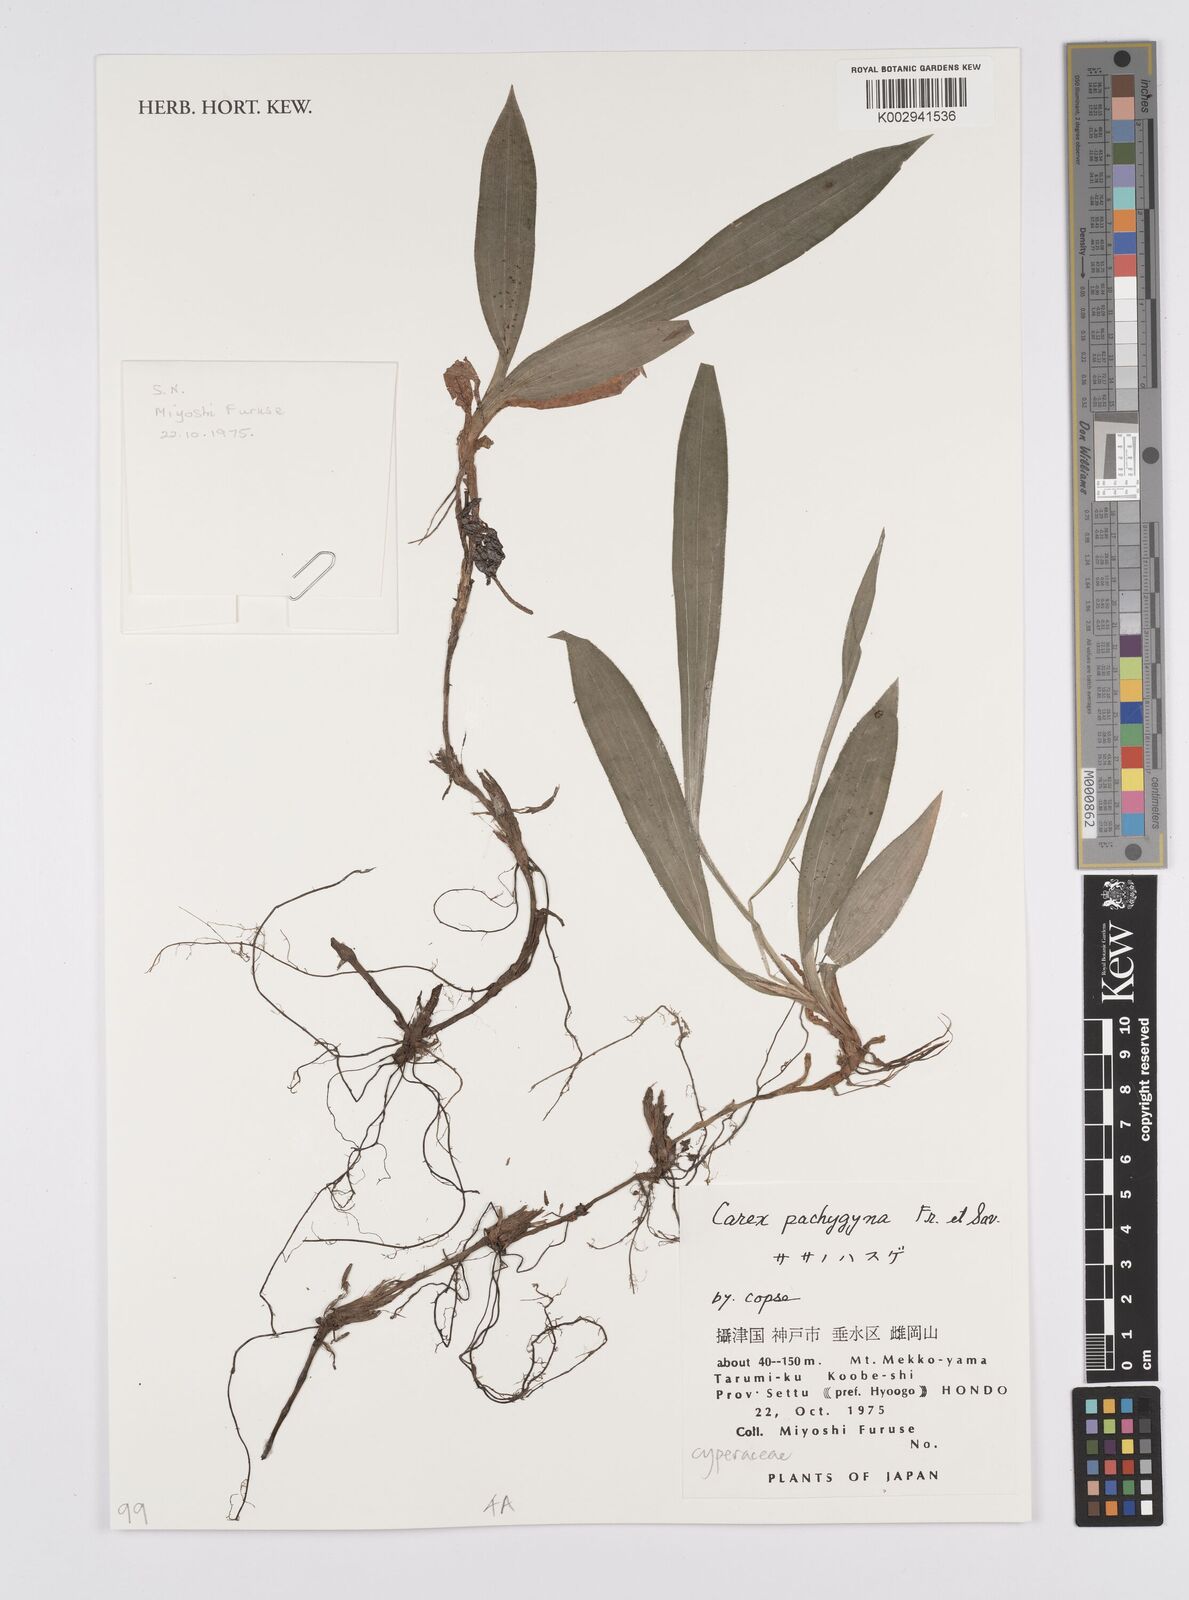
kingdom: Plantae
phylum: Tracheophyta
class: Liliopsida
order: Poales
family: Cyperaceae
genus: Carex
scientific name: Carex pachygyna
